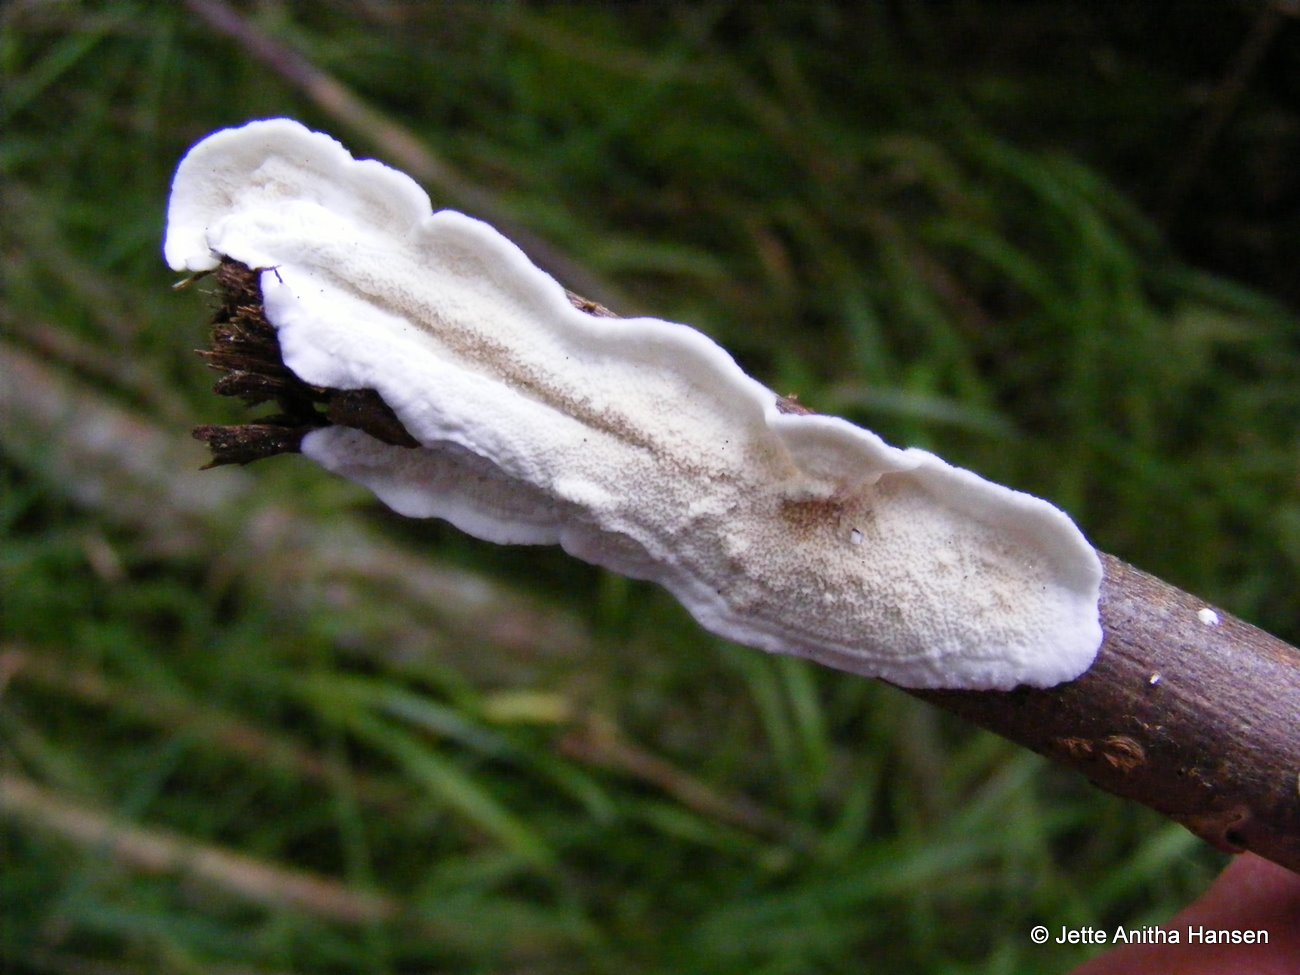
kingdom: Fungi
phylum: Basidiomycota
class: Agaricomycetes
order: Polyporales
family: Irpicaceae
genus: Byssomerulius
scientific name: Byssomerulius corium
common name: læder-åresvamp
